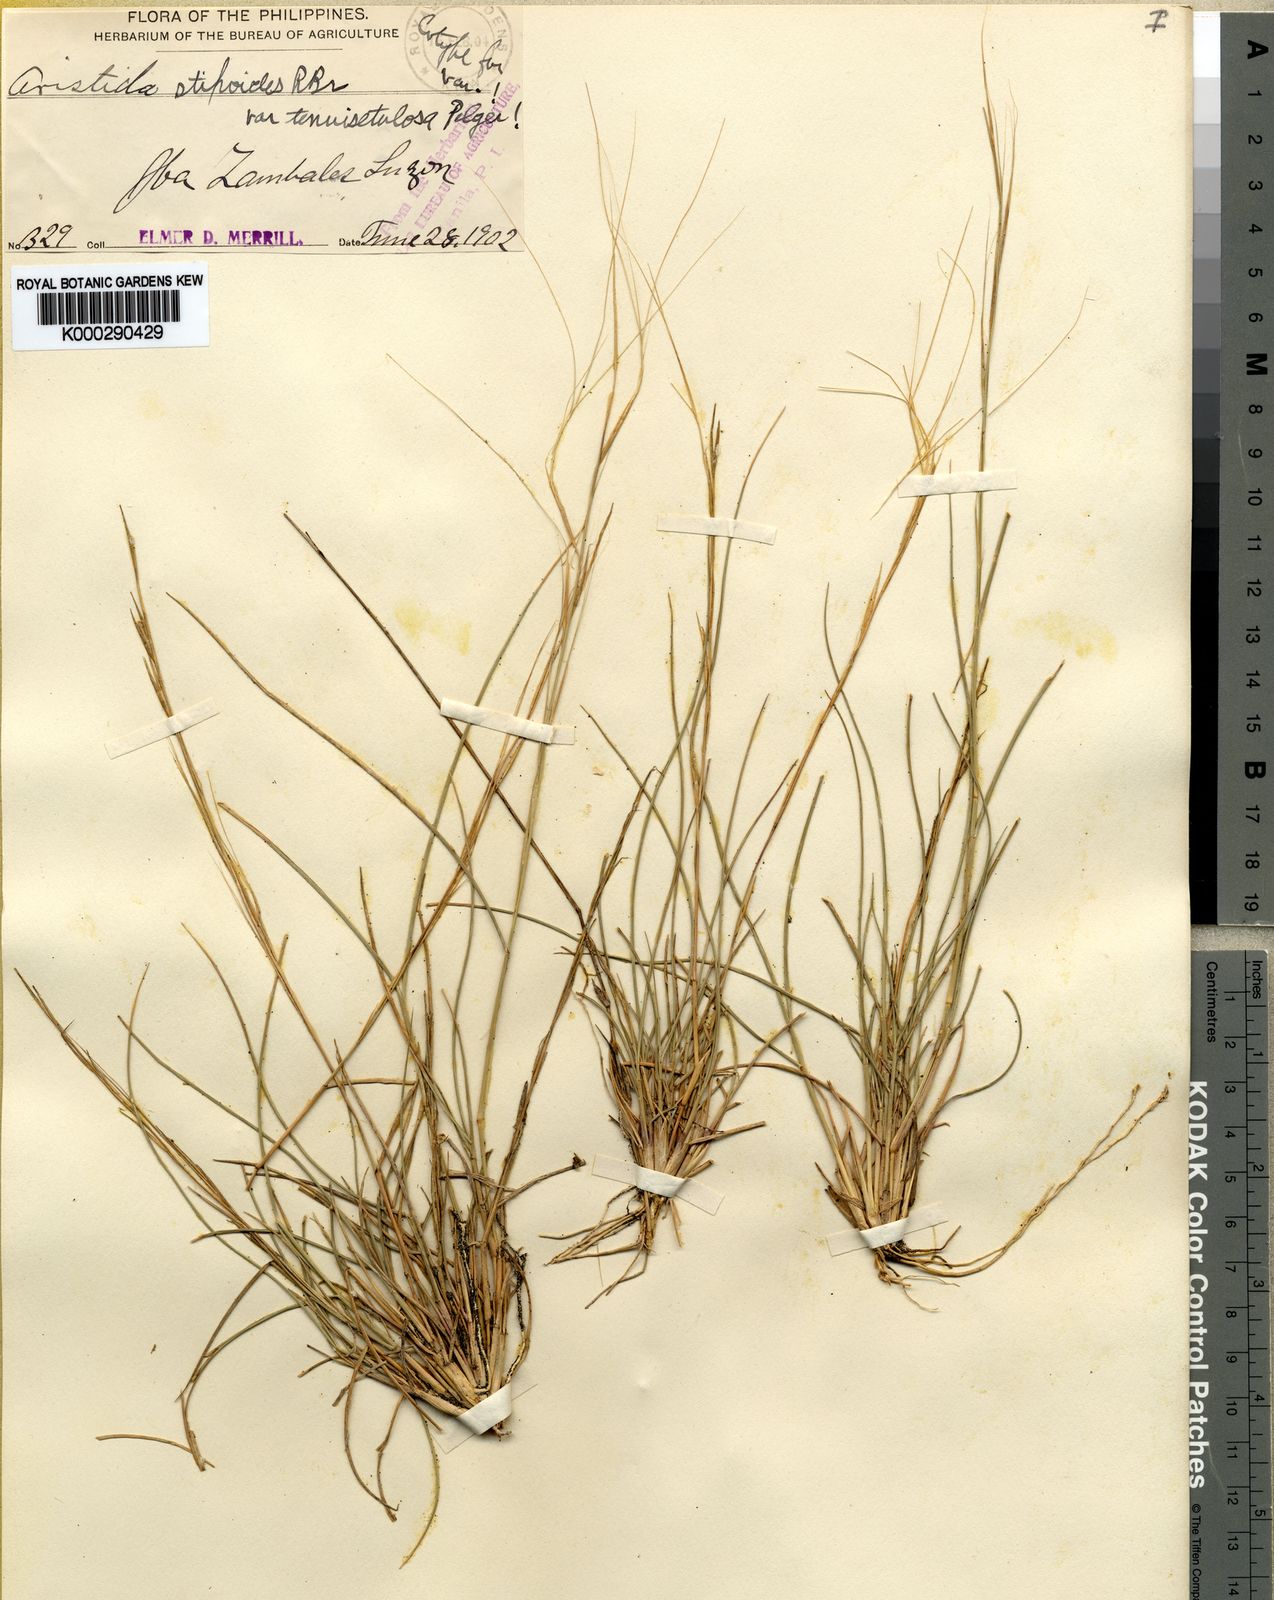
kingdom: Plantae
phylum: Tracheophyta
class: Liliopsida
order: Poales
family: Poaceae
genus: Aristida
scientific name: Aristida holathera
